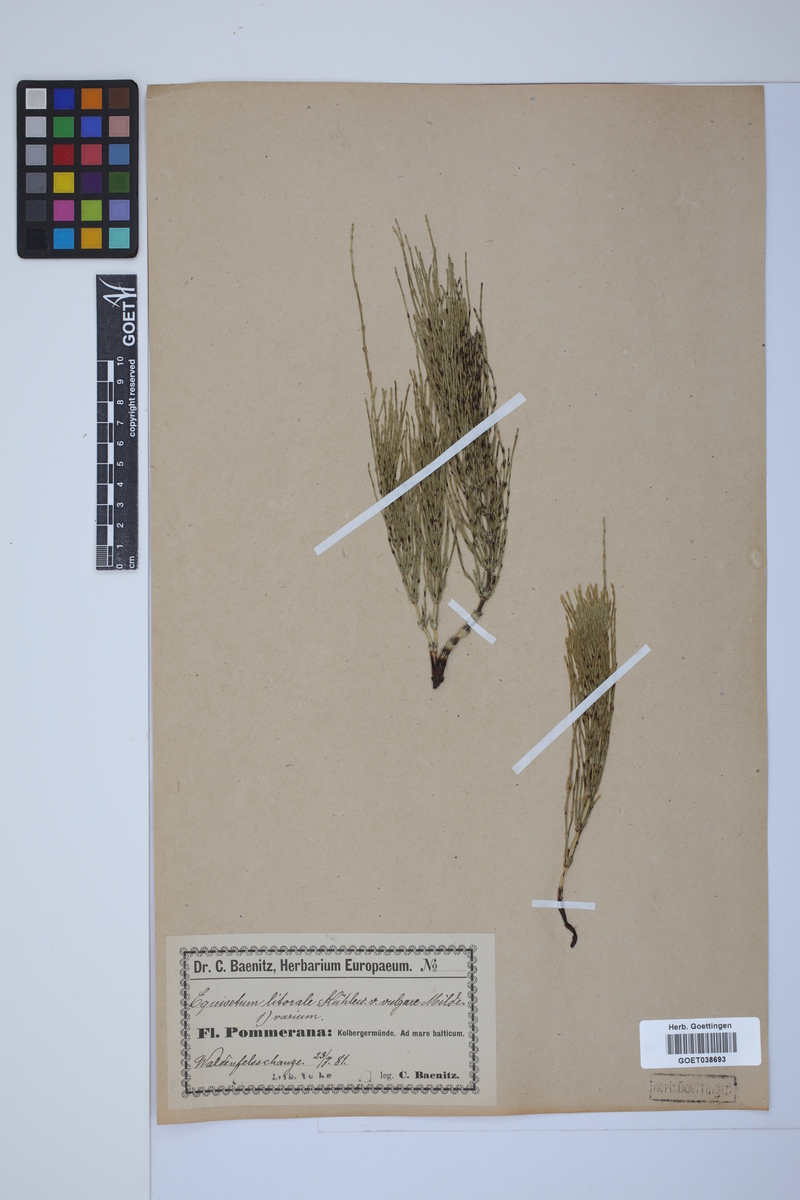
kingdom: Plantae
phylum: Tracheophyta
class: Polypodiopsida
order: Equisetales
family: Equisetaceae
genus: Equisetum
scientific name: Equisetum litorale
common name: Littoral horsetail
